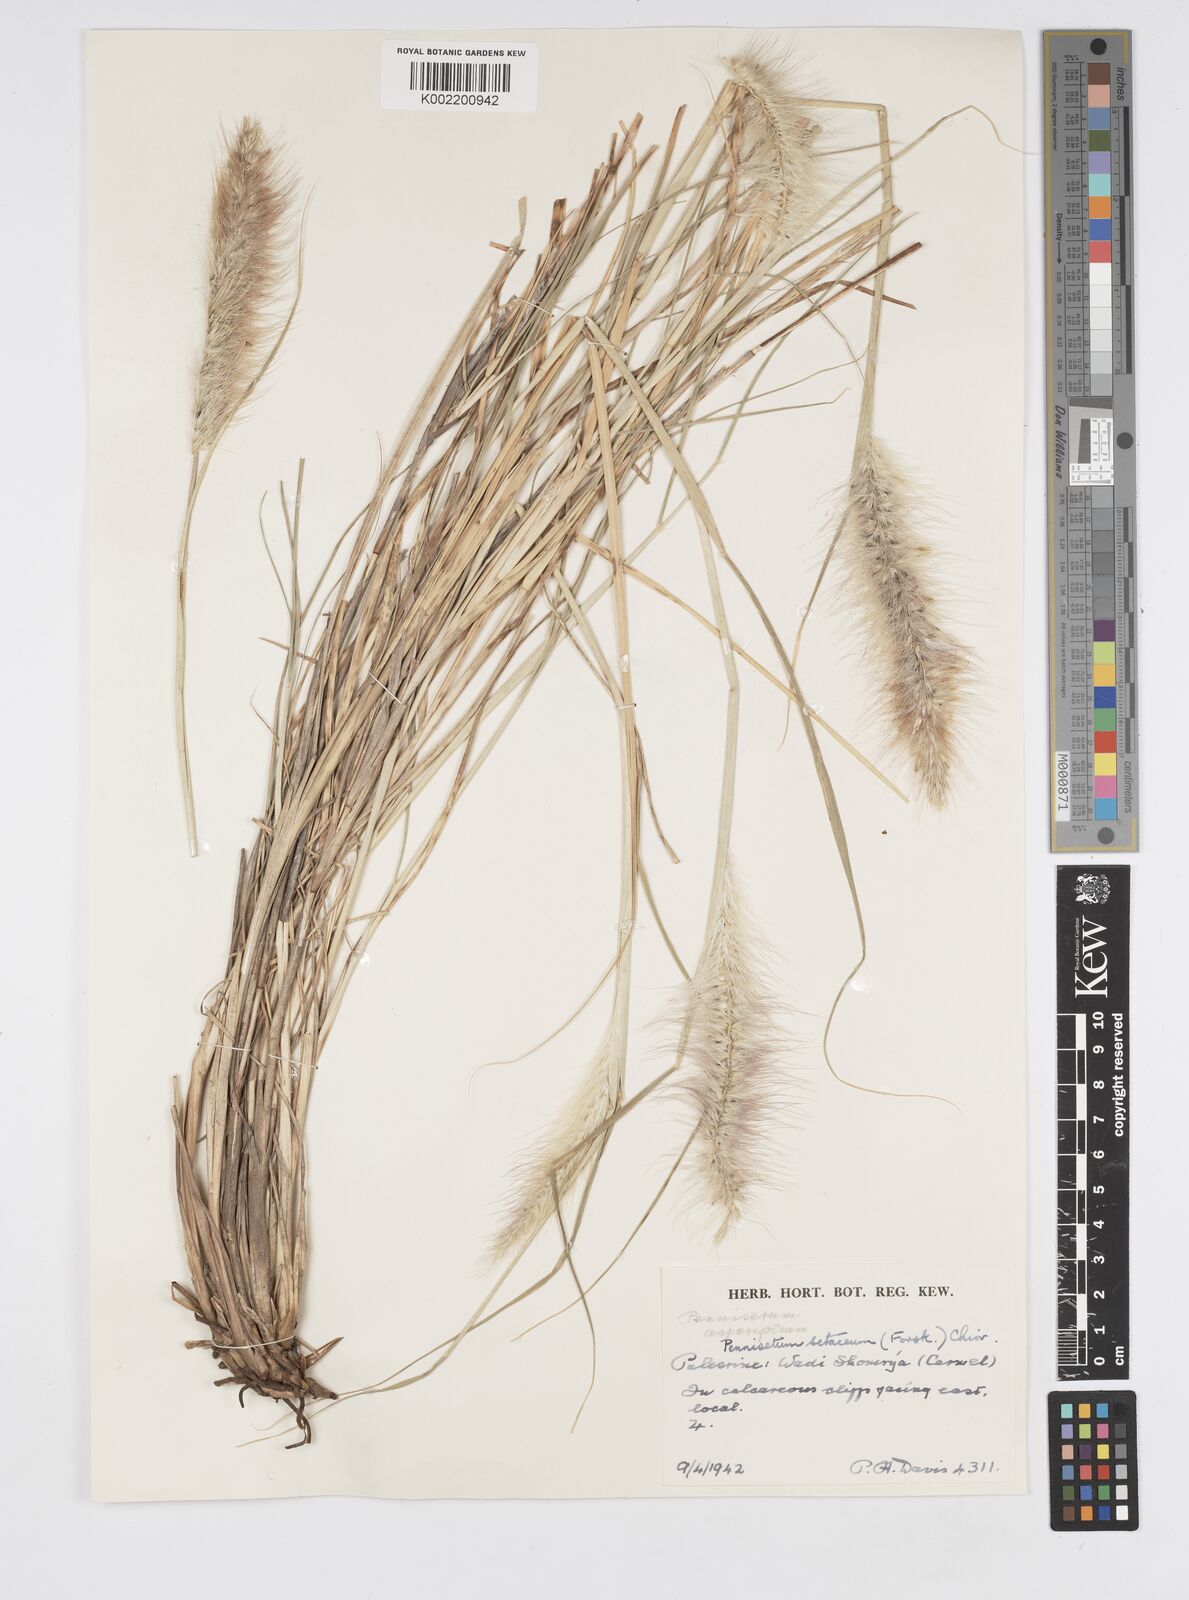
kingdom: Plantae
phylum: Tracheophyta
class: Liliopsida
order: Poales
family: Poaceae
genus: Cenchrus
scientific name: Cenchrus setaceus
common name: Crimson fountaingrass
